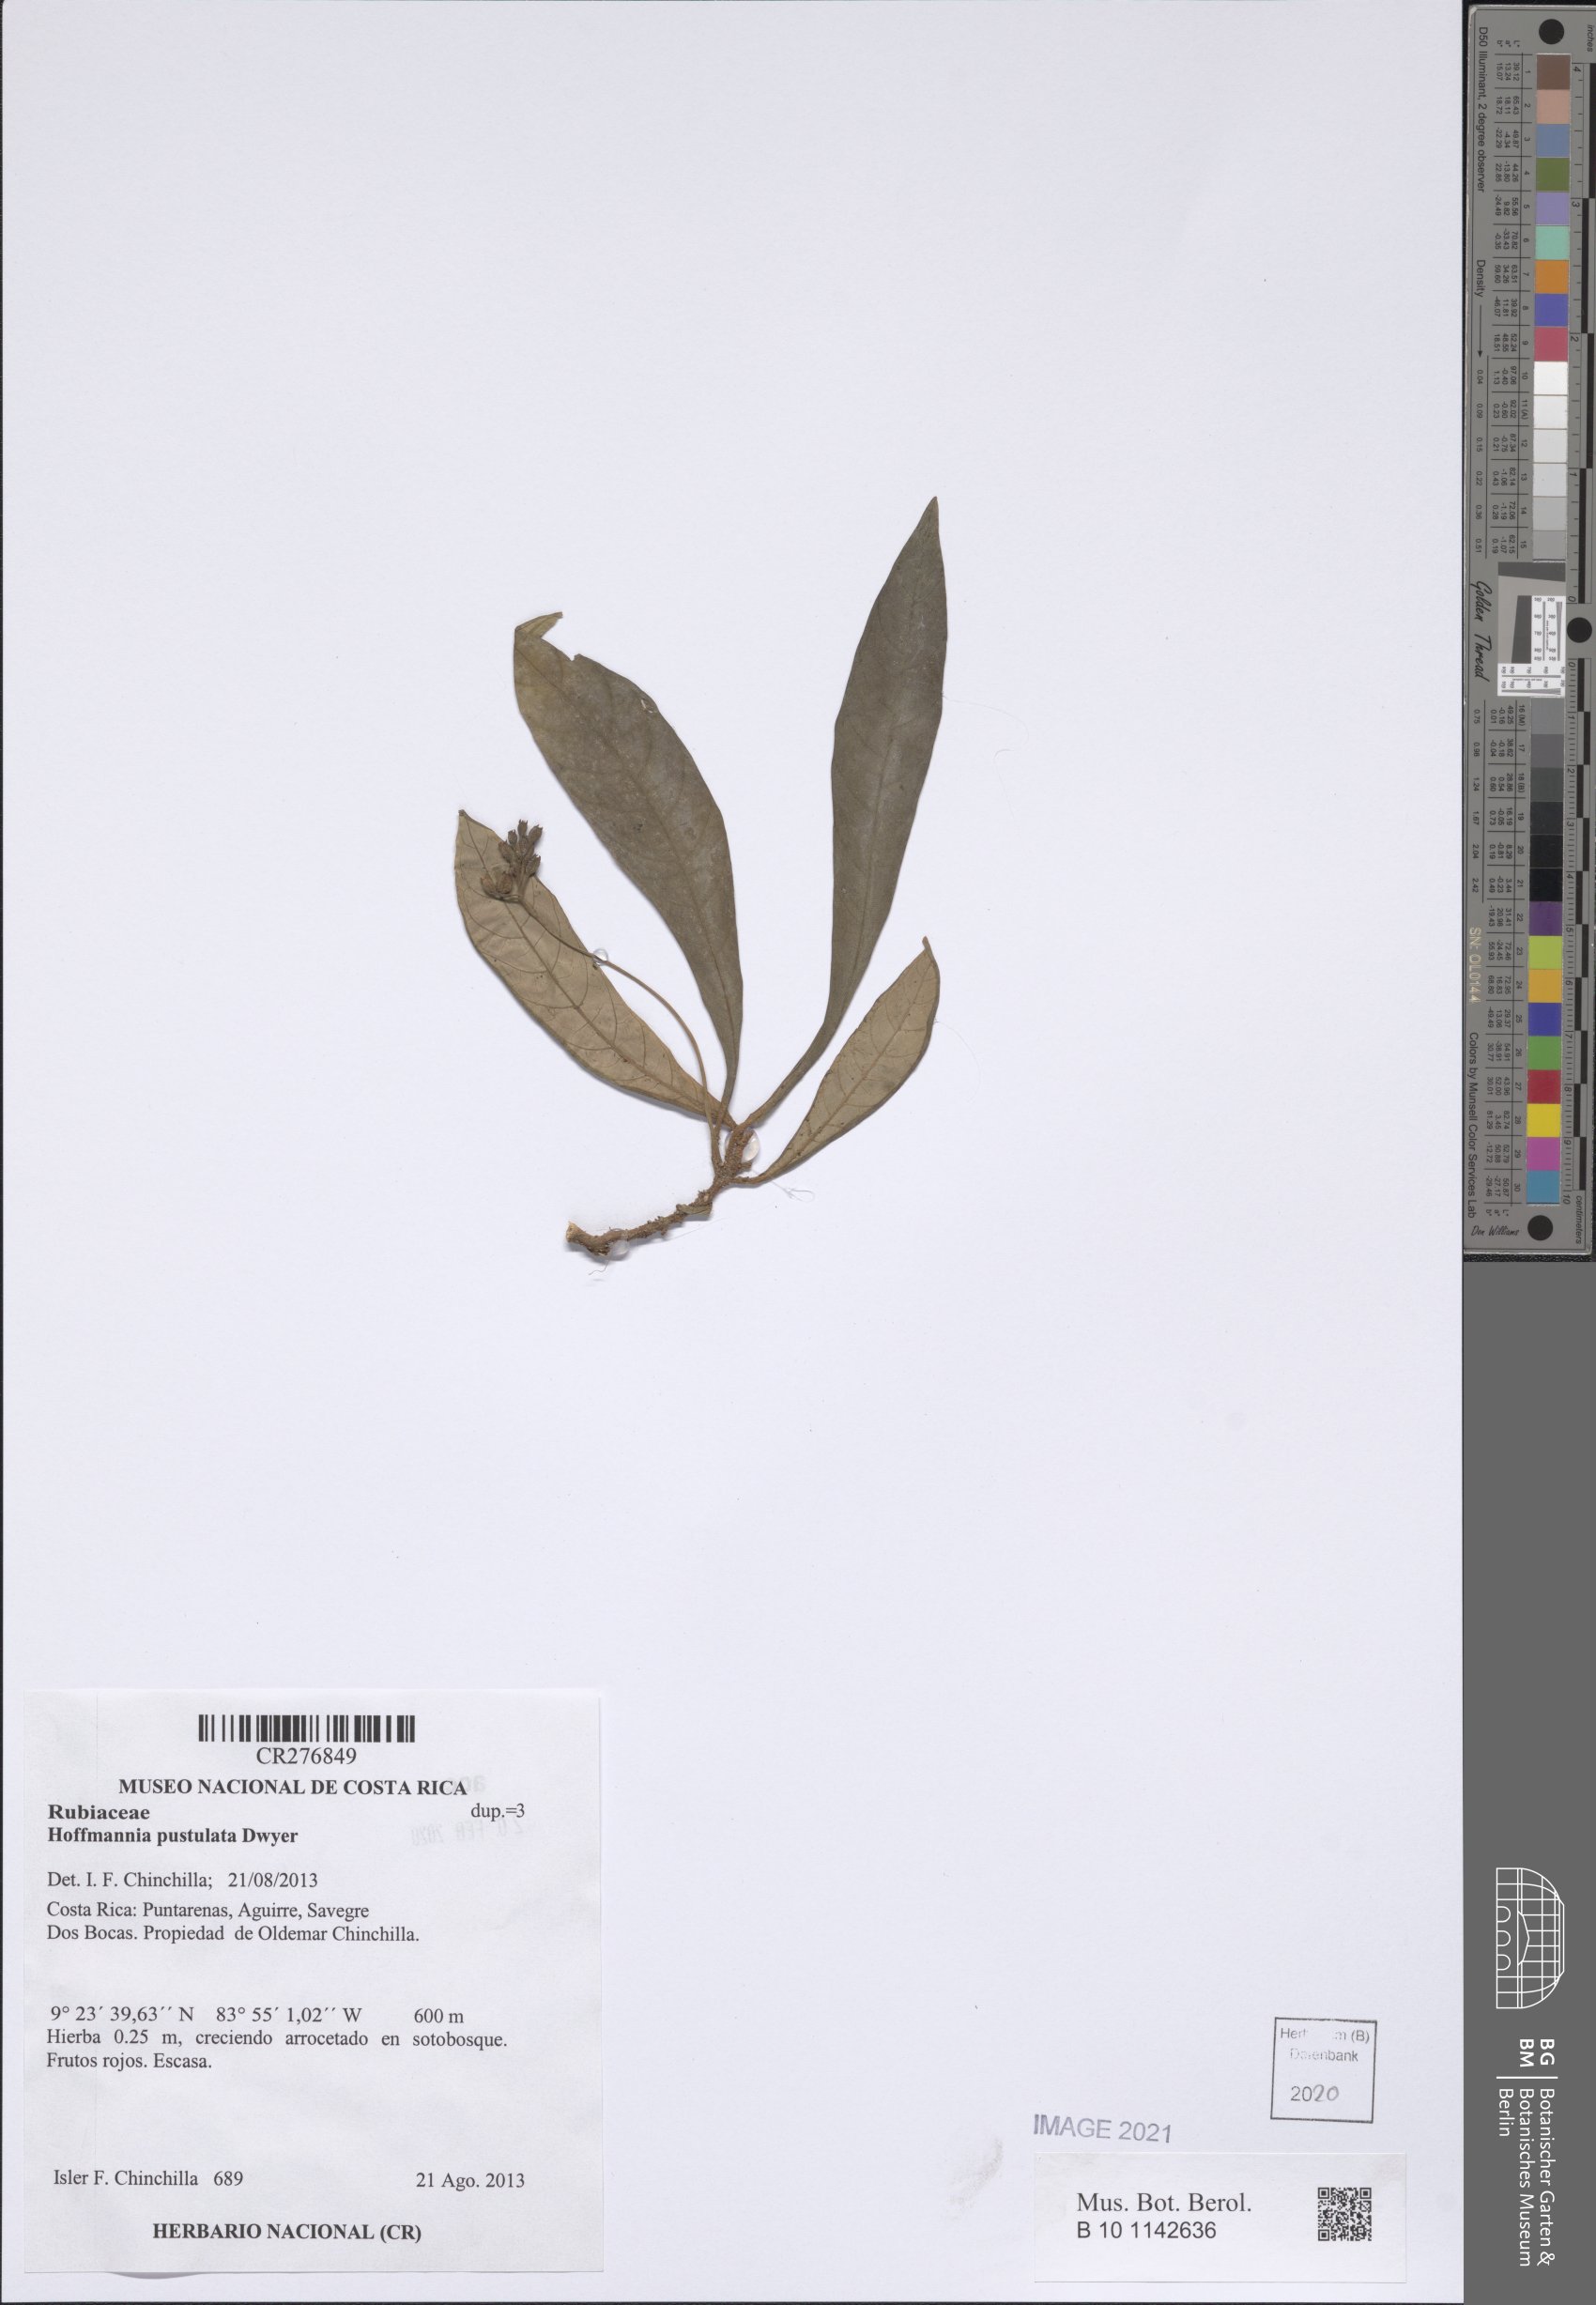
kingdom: Plantae
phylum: Tracheophyta
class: Magnoliopsida
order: Gentianales
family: Rubiaceae
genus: Hoffmannia
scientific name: Hoffmannia
